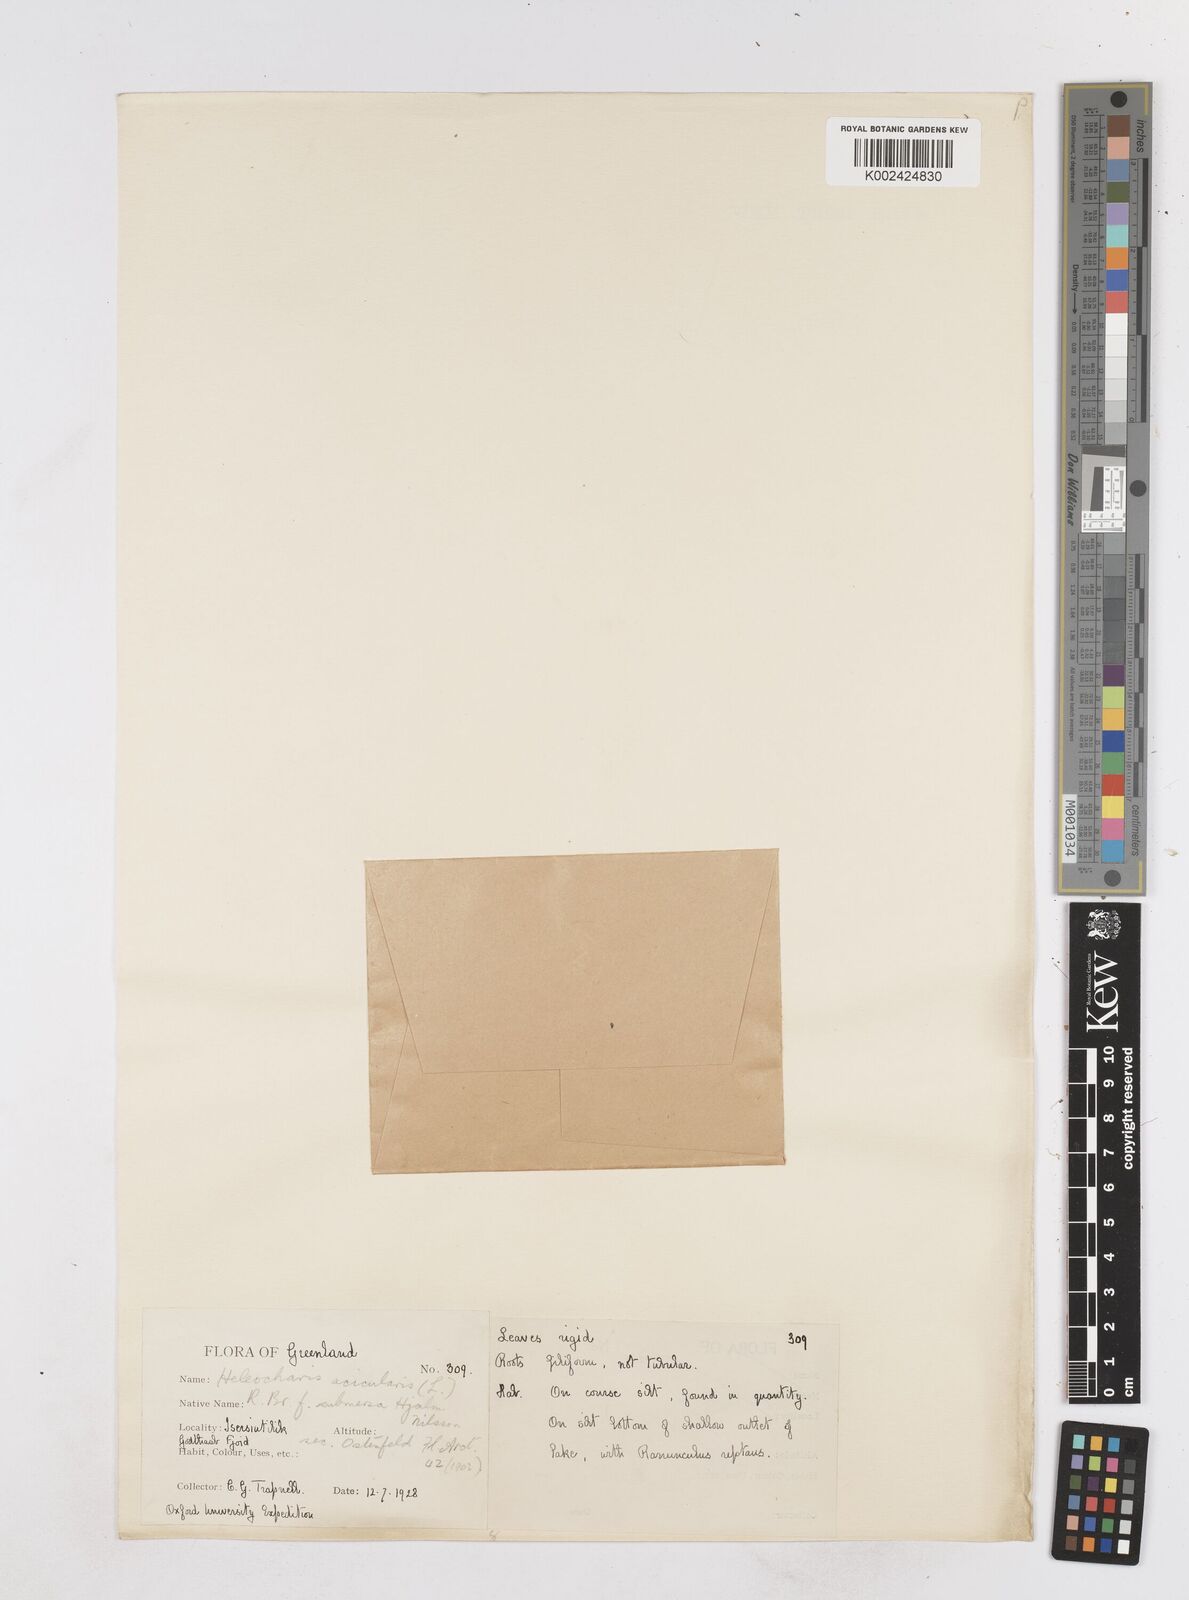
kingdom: Plantae
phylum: Tracheophyta
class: Liliopsida
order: Poales
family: Cyperaceae
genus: Eleocharis
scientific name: Eleocharis acicularis
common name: Needle spike-rush
